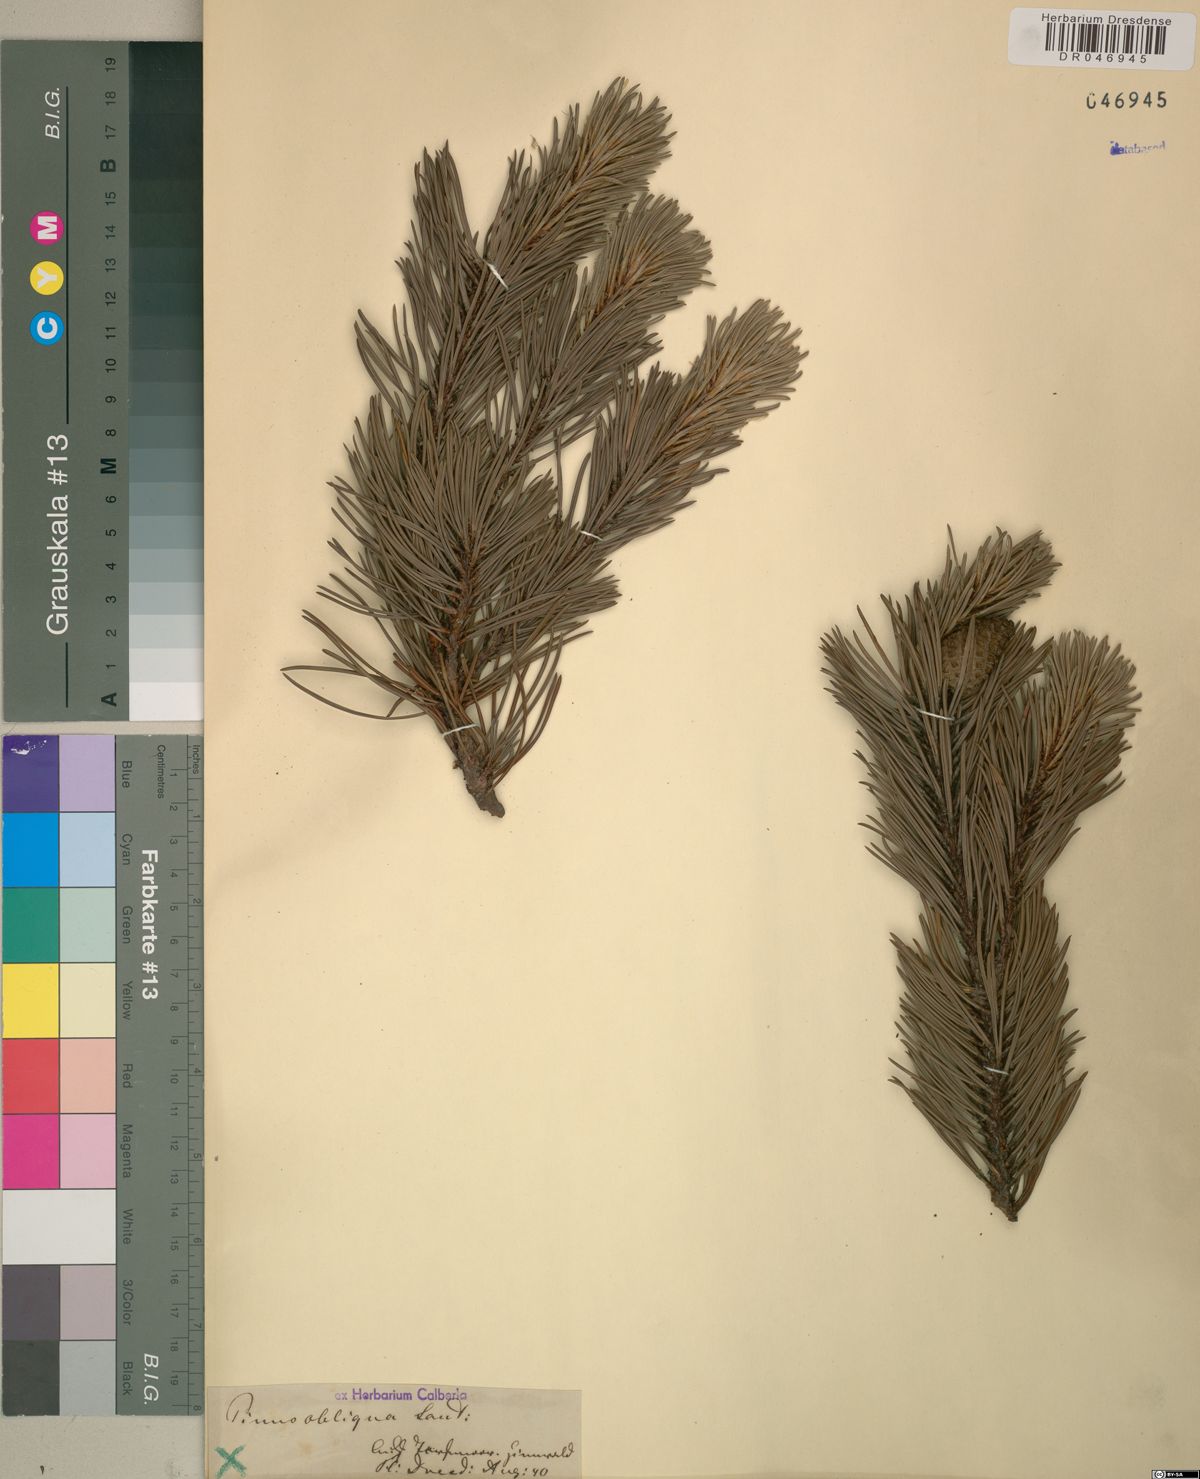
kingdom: Plantae
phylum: Tracheophyta
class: Pinopsida
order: Pinales
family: Pinaceae
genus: Pinus
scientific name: Pinus mugo
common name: Mugo pine
